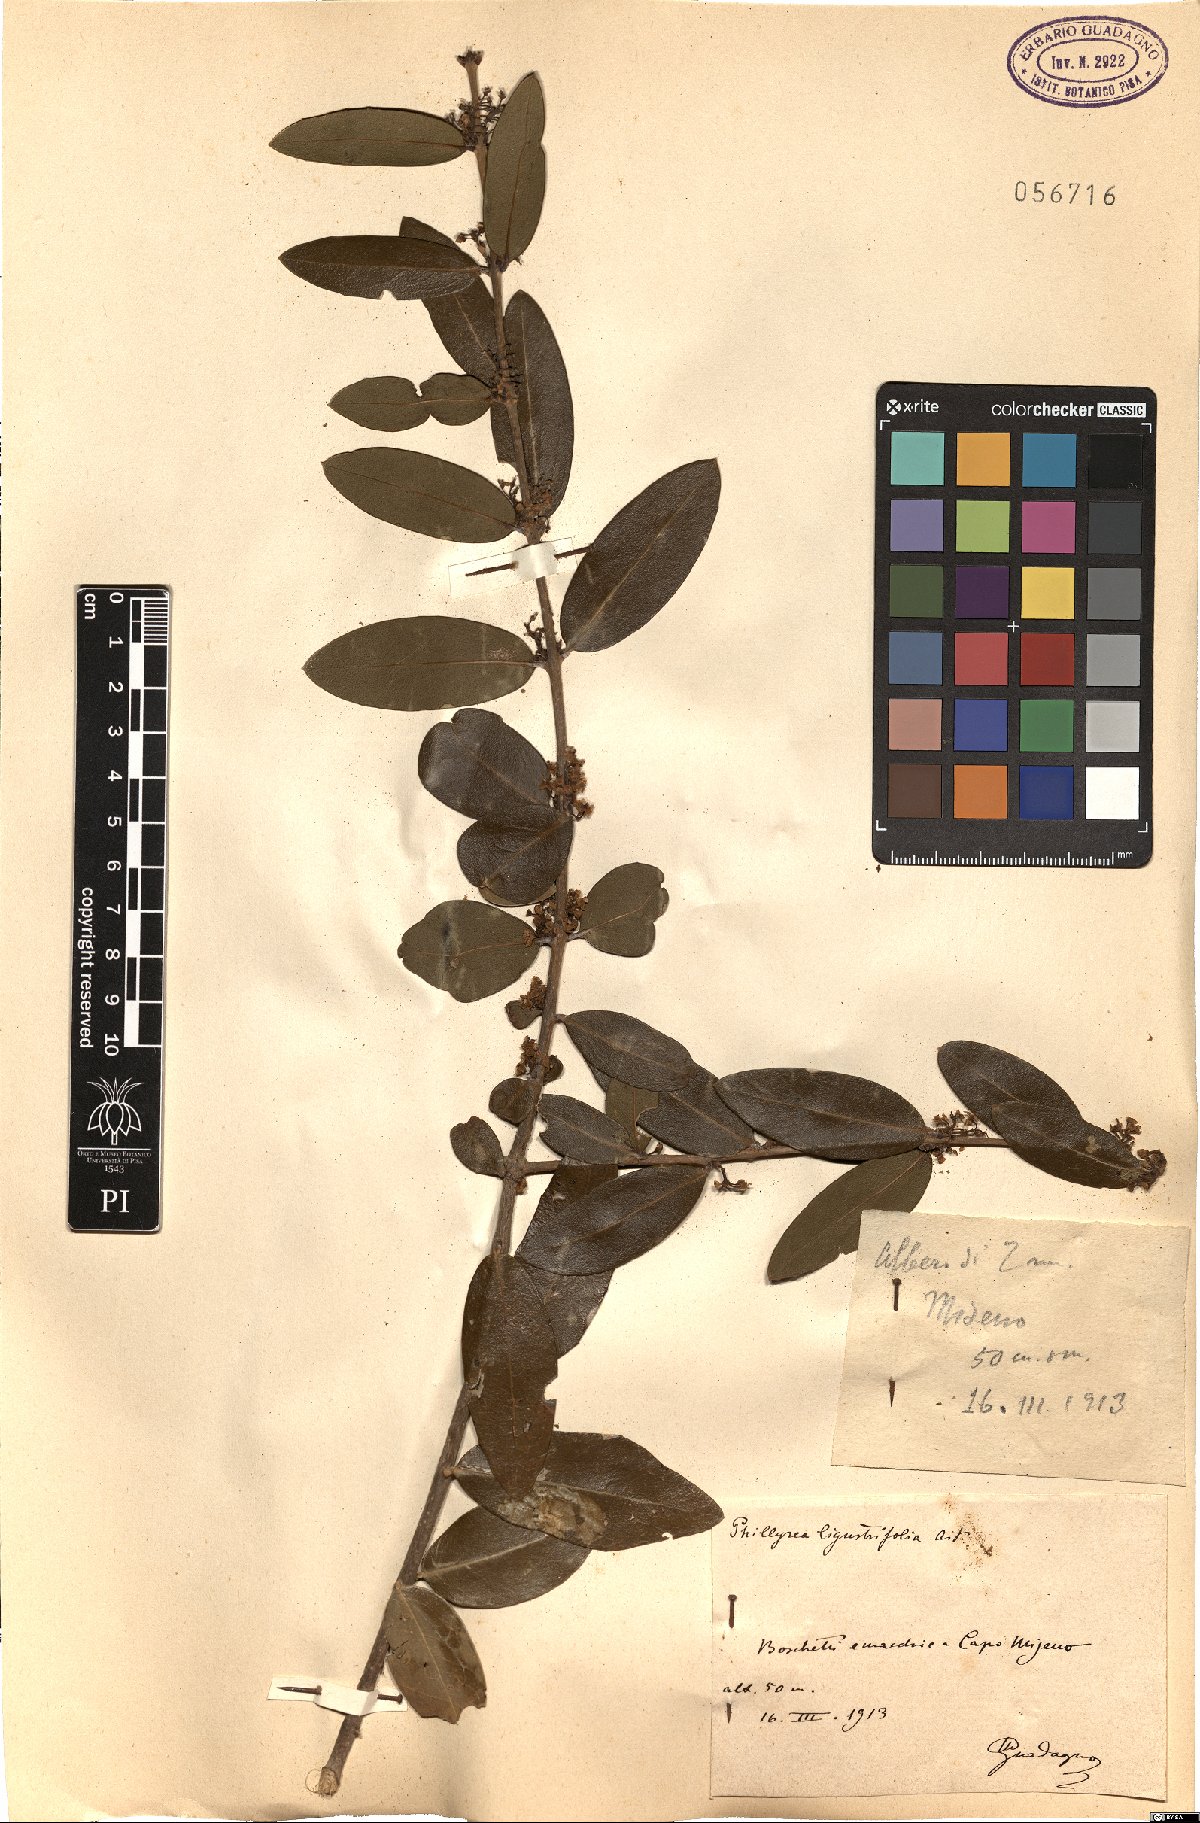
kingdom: Plantae
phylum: Tracheophyta
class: Magnoliopsida
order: Lamiales
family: Oleaceae
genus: Phillyrea
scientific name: Phillyrea latifolia
